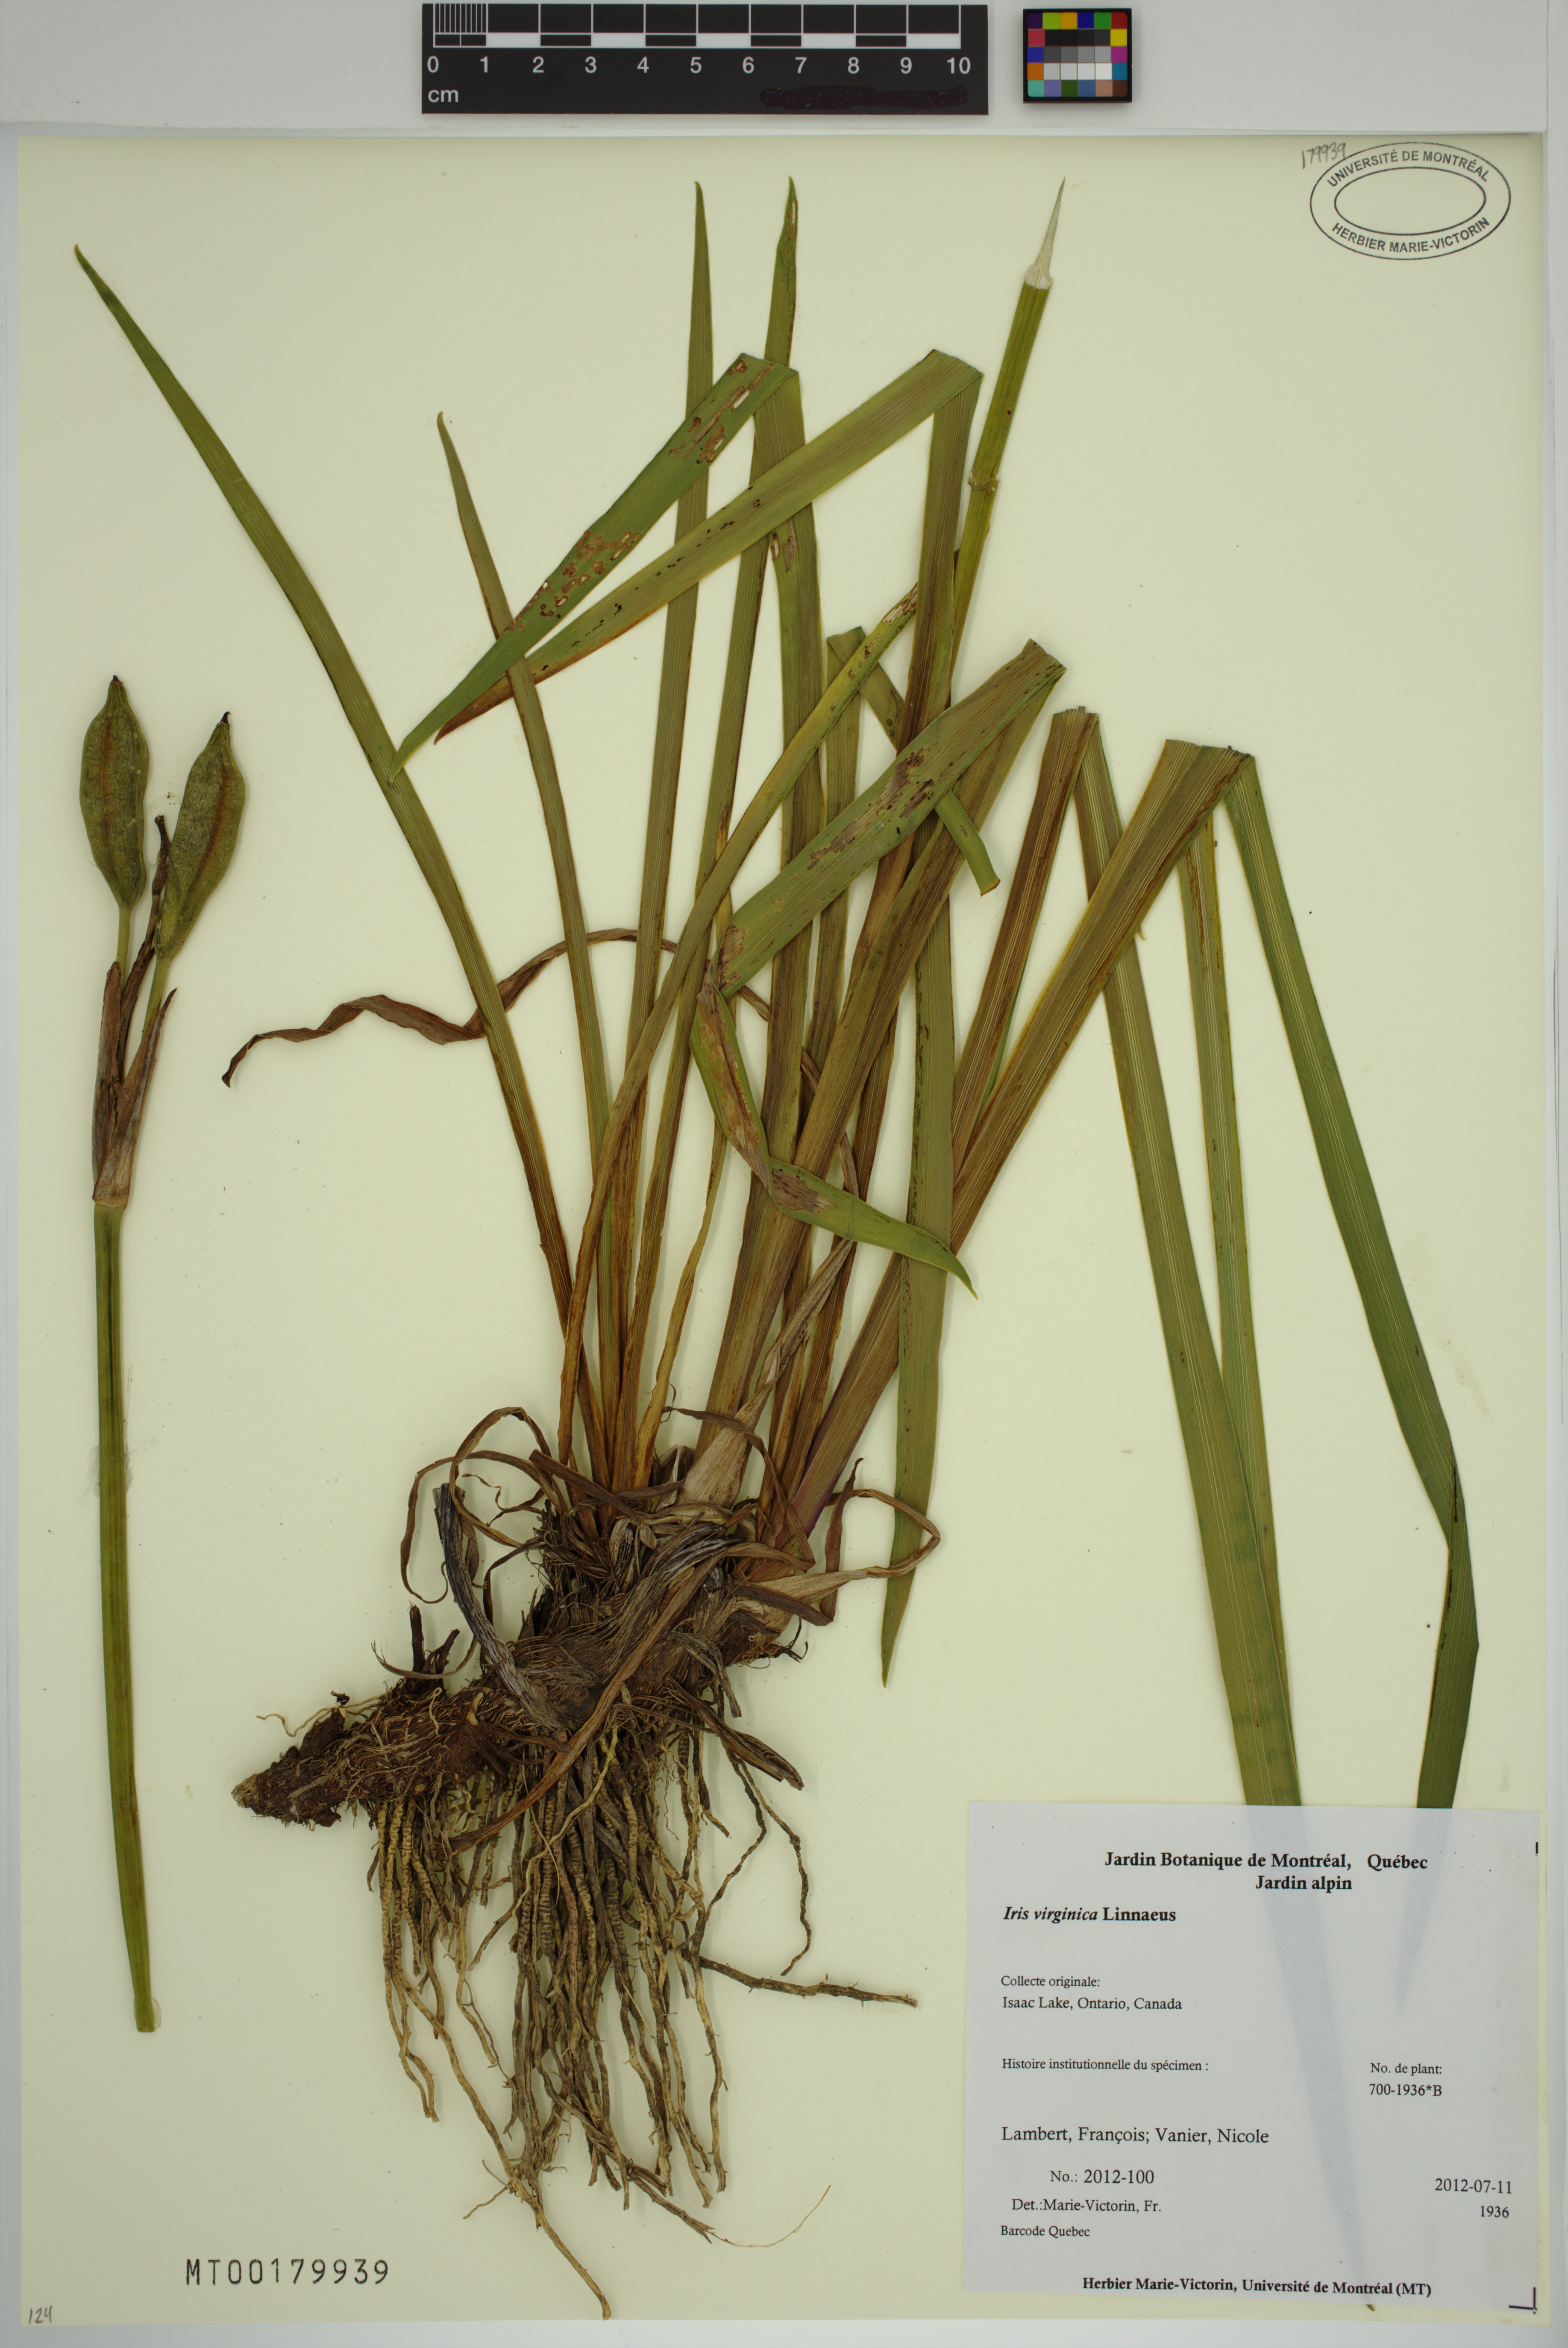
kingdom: Plantae
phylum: Tracheophyta
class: Liliopsida
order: Asparagales
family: Iridaceae
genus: Iris
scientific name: Iris virginica
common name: Southern blue flag
